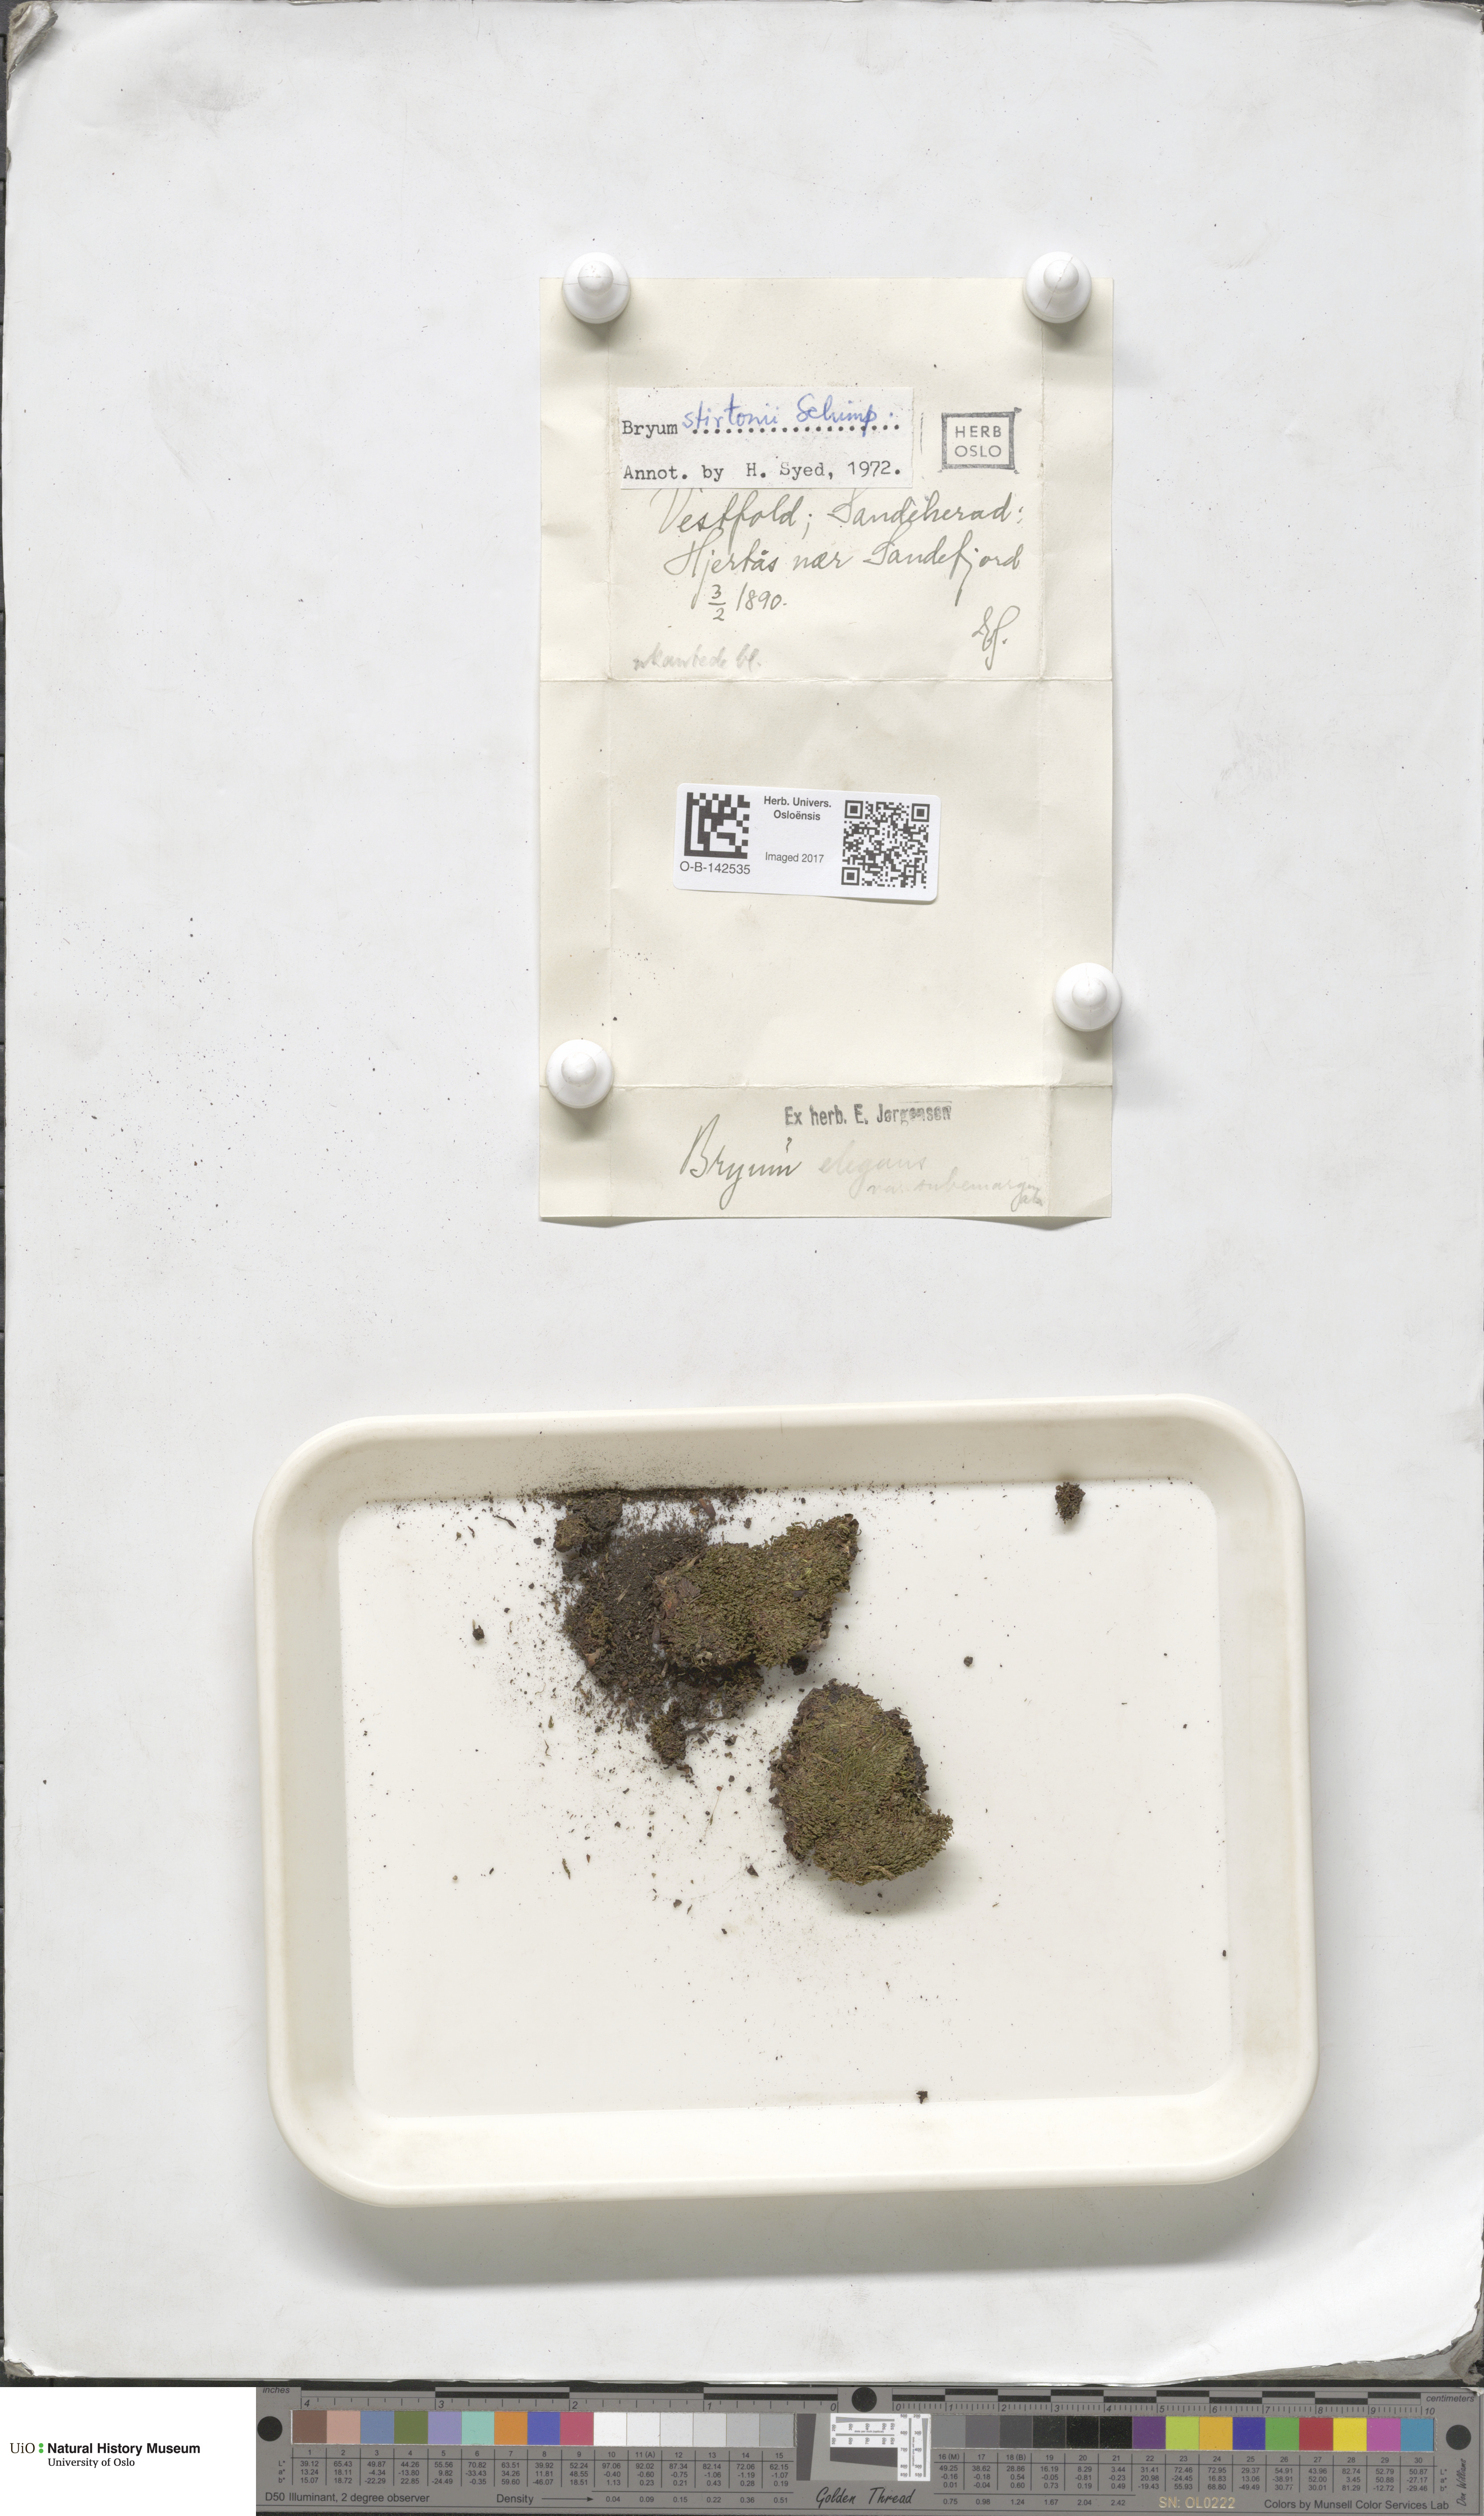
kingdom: Plantae
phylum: Bryophyta
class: Bryopsida
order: Bryales
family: Bryaceae
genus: Rosulabryum
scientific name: Rosulabryum elegans
